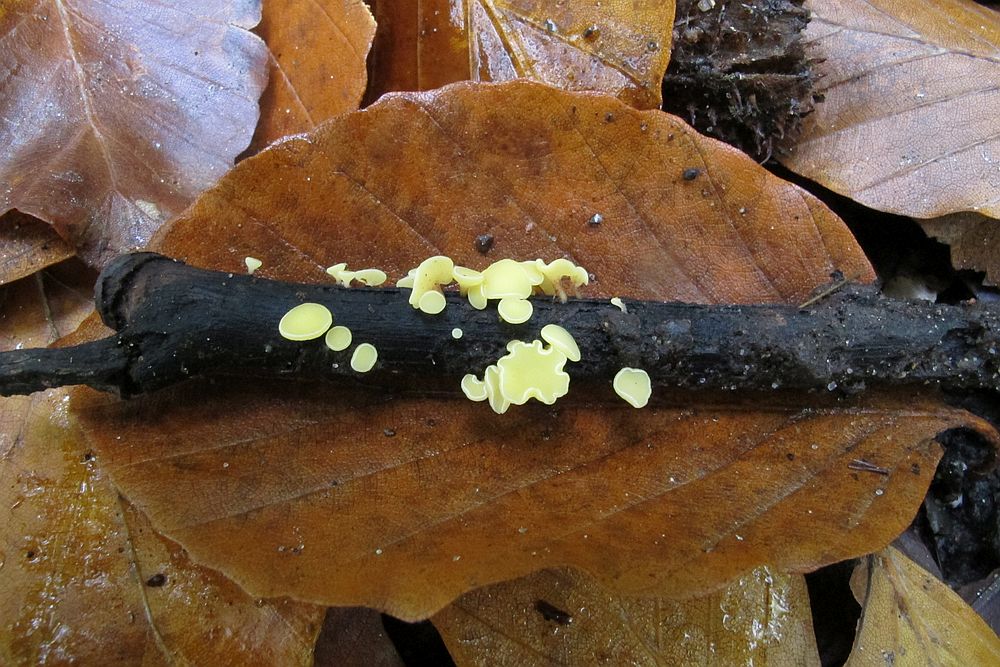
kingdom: Fungi
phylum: Ascomycota
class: Leotiomycetes
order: Helotiales
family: Helotiaceae
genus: Hymenoscyphus
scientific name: Hymenoscyphus serotinus
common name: krumsporet stilkskive
